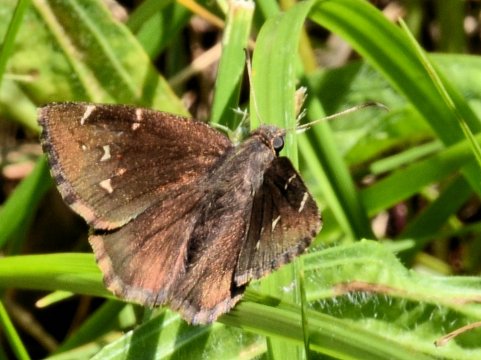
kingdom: Animalia
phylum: Arthropoda
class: Insecta
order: Lepidoptera
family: Hesperiidae
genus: Autochton
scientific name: Autochton
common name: Northern Cloudywing
